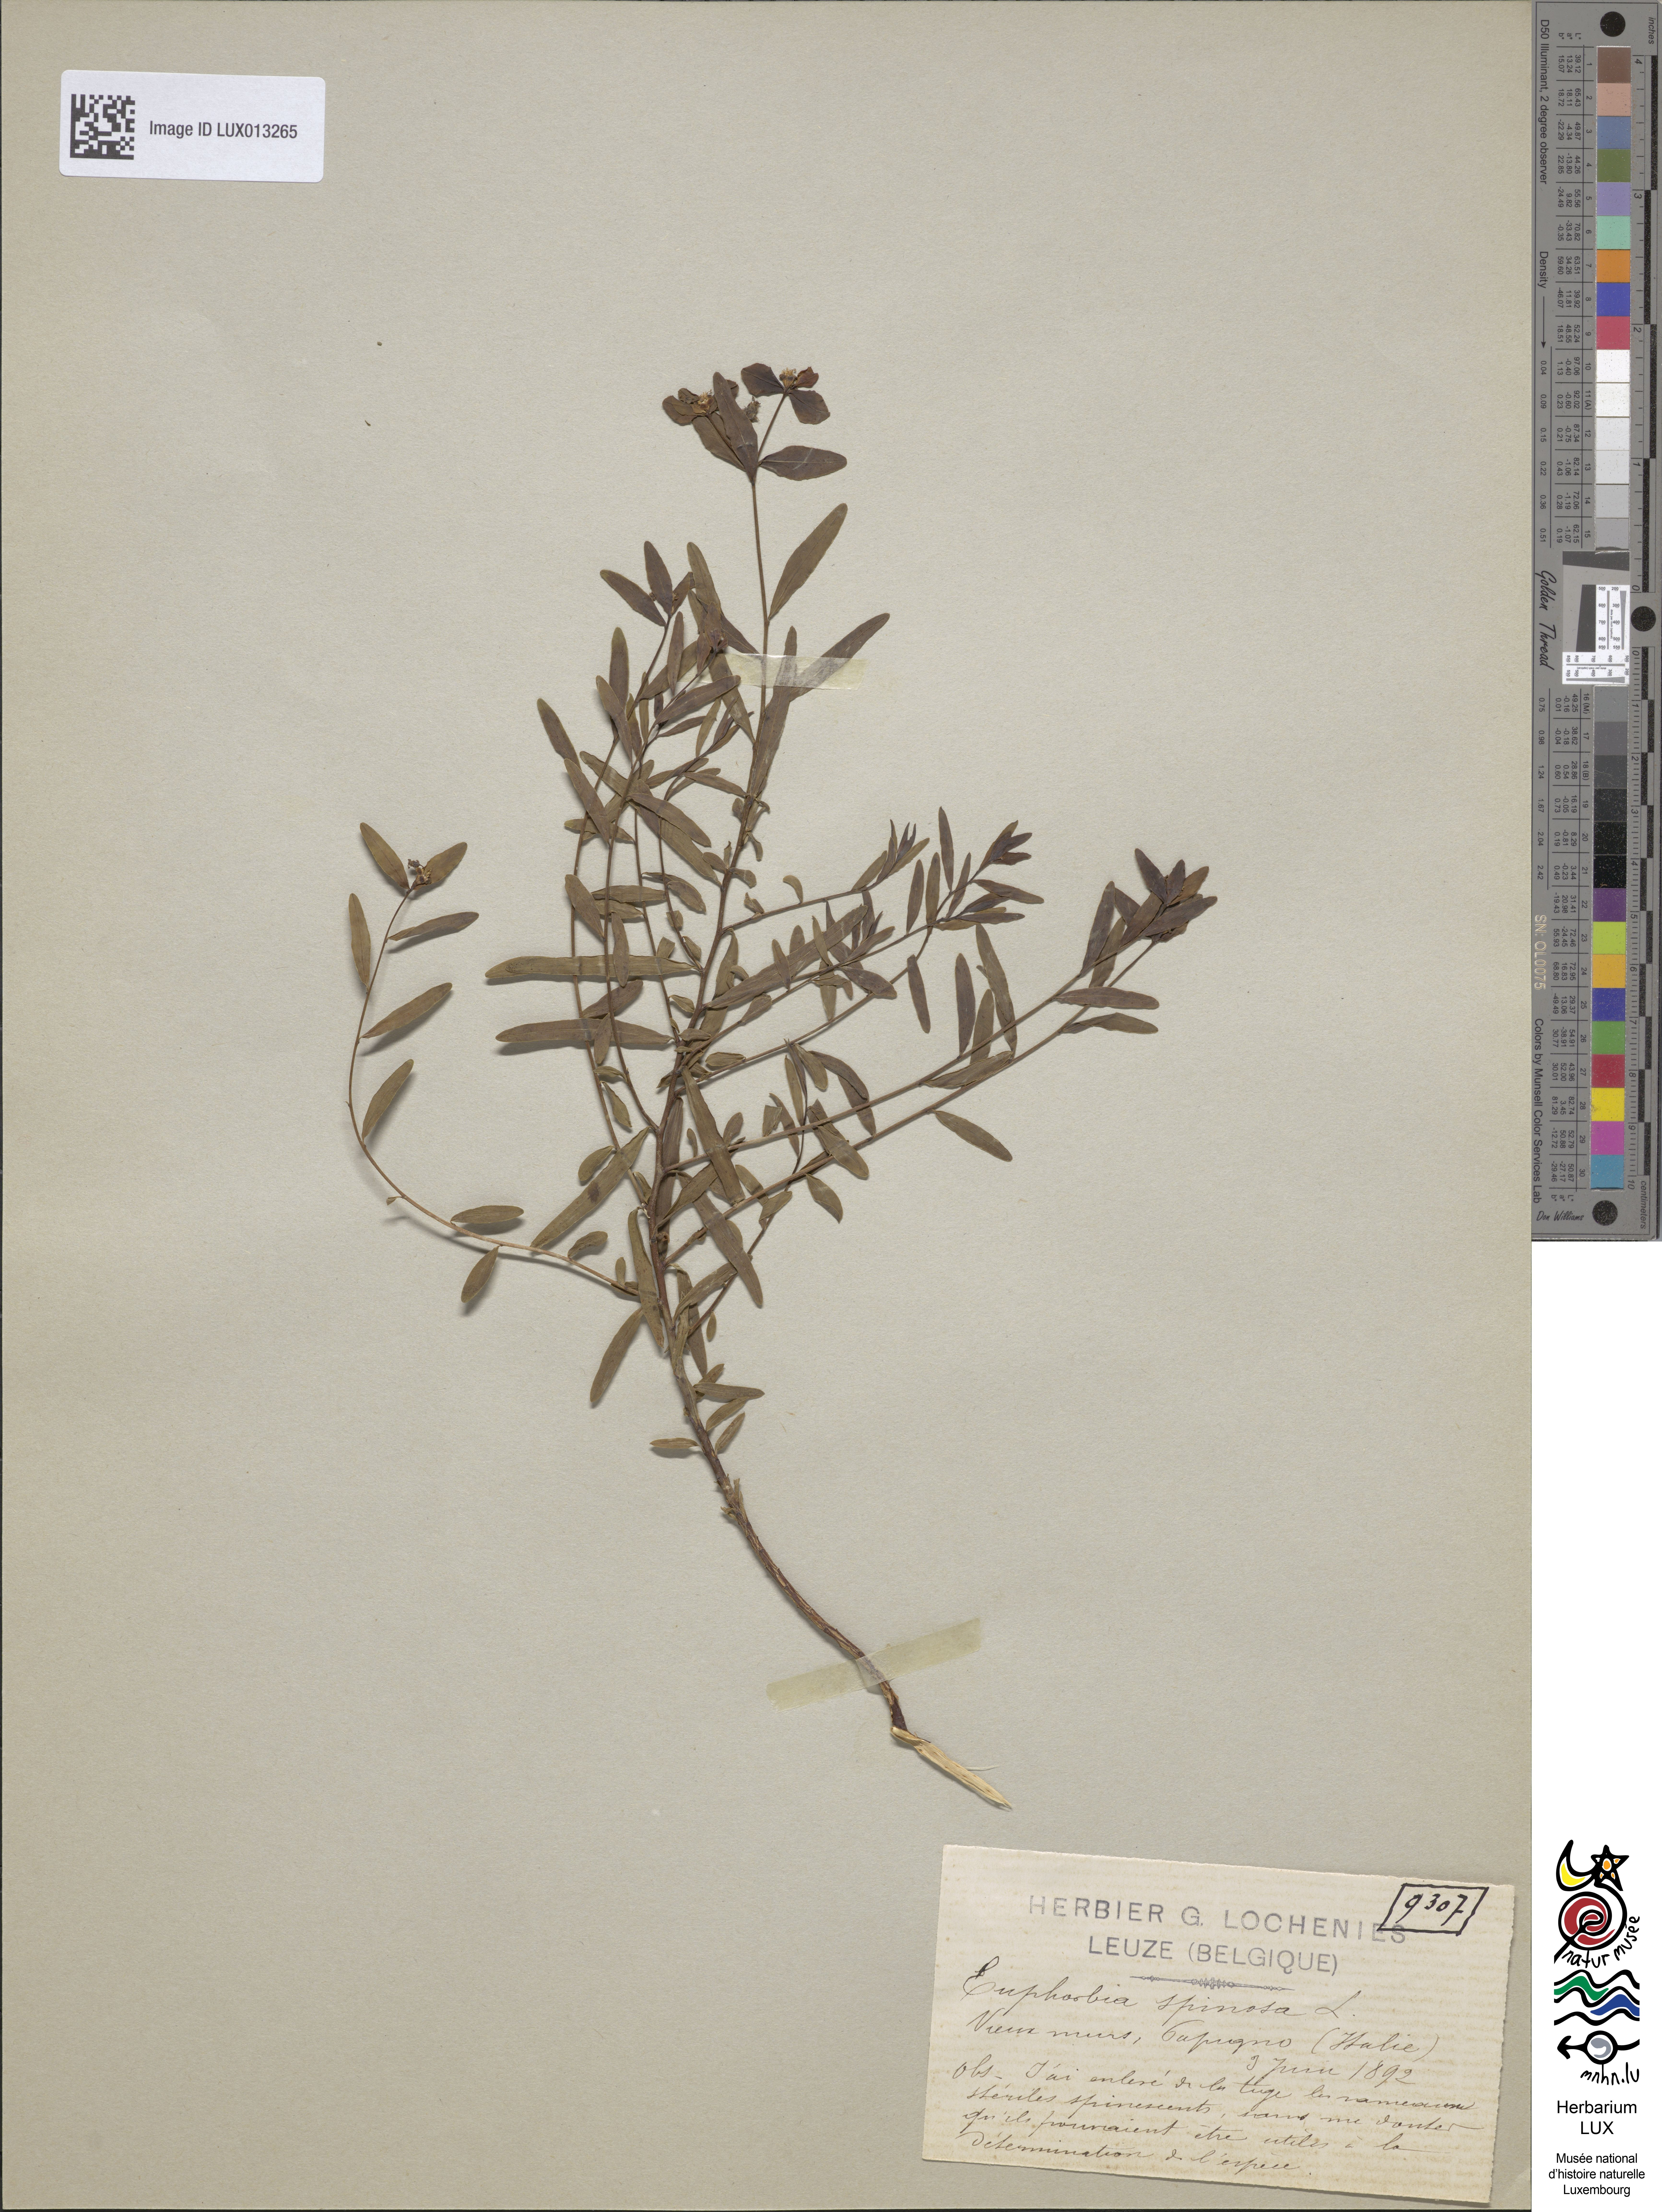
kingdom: Plantae
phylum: Tracheophyta
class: Magnoliopsida
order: Malpighiales
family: Euphorbiaceae
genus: Euphorbia
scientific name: Euphorbia spinosa
